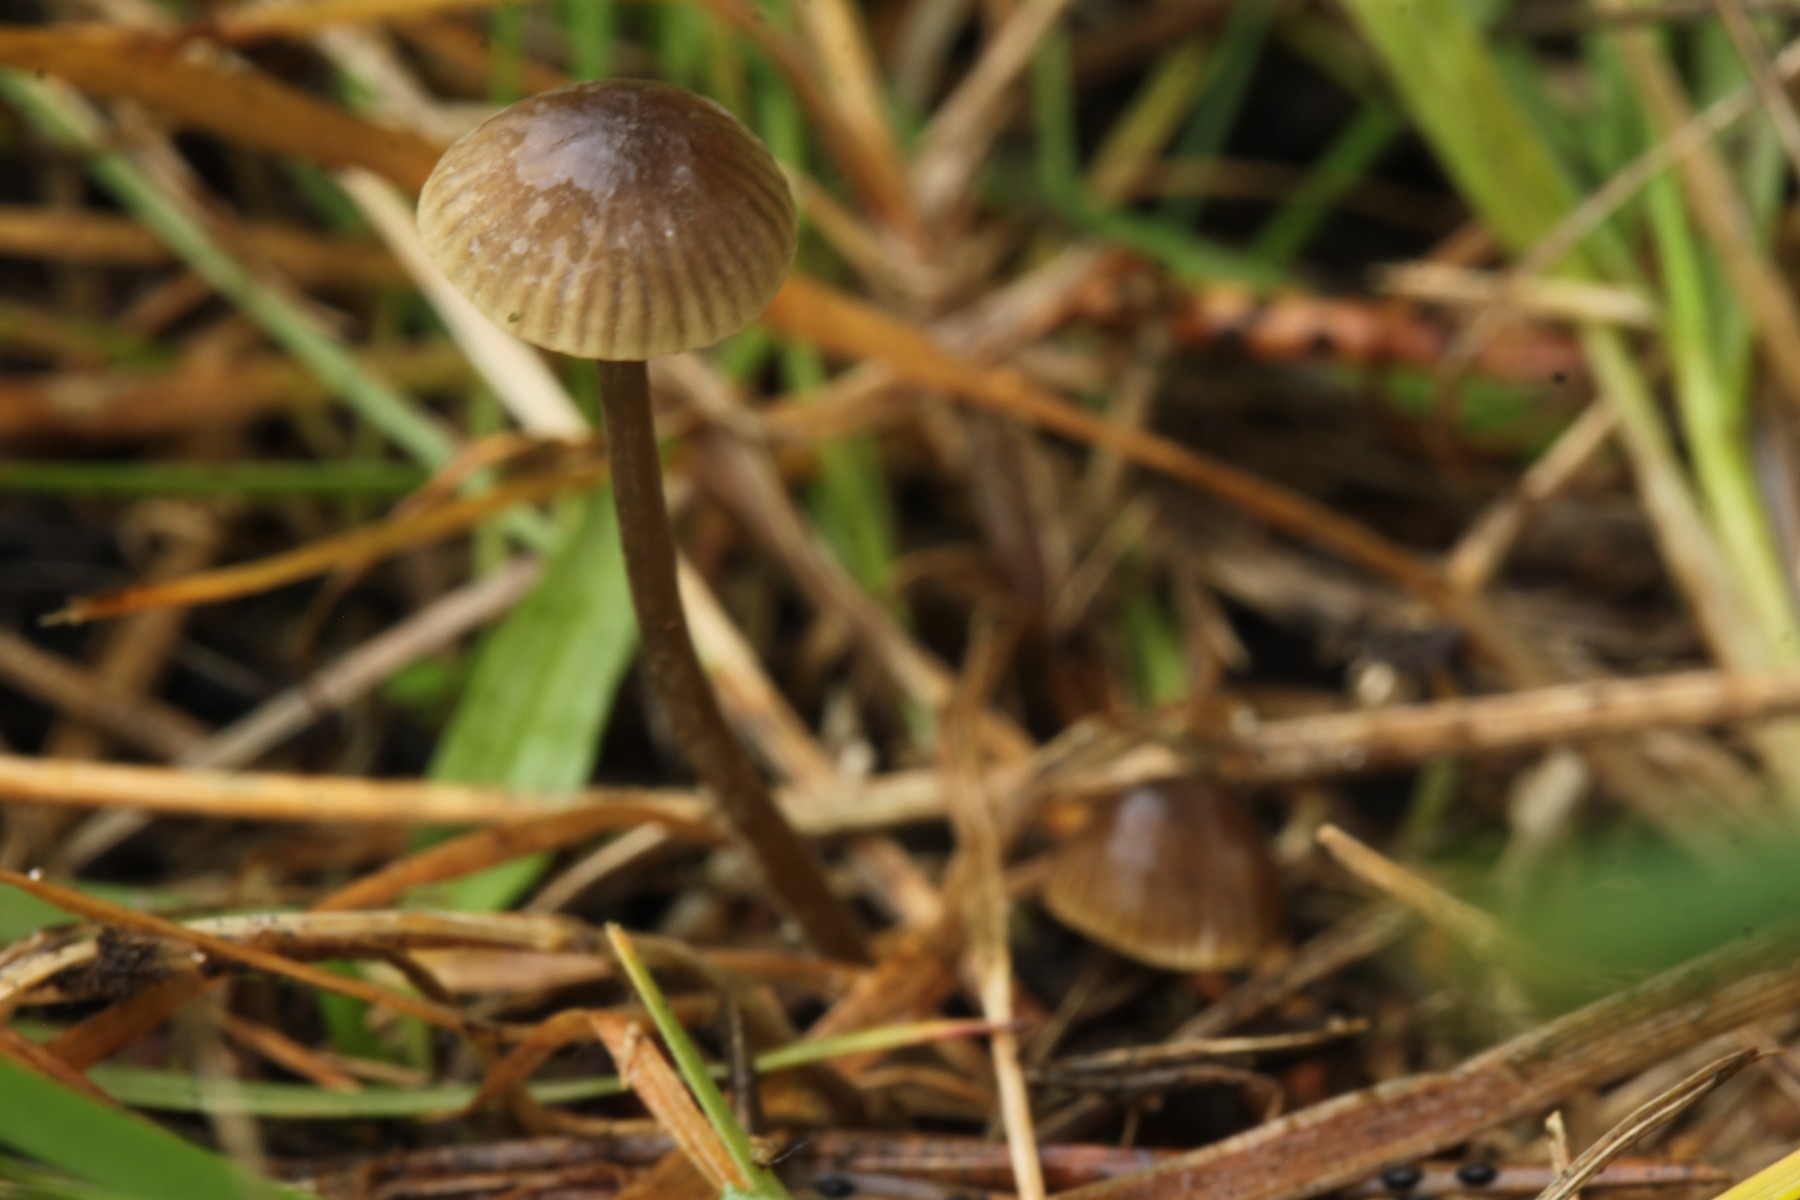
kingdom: Fungi
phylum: Basidiomycota
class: Agaricomycetes
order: Agaricales
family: Mycenaceae
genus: Mycena
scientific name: Mycena olivaceomarginata
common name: brunægget huesvamp
